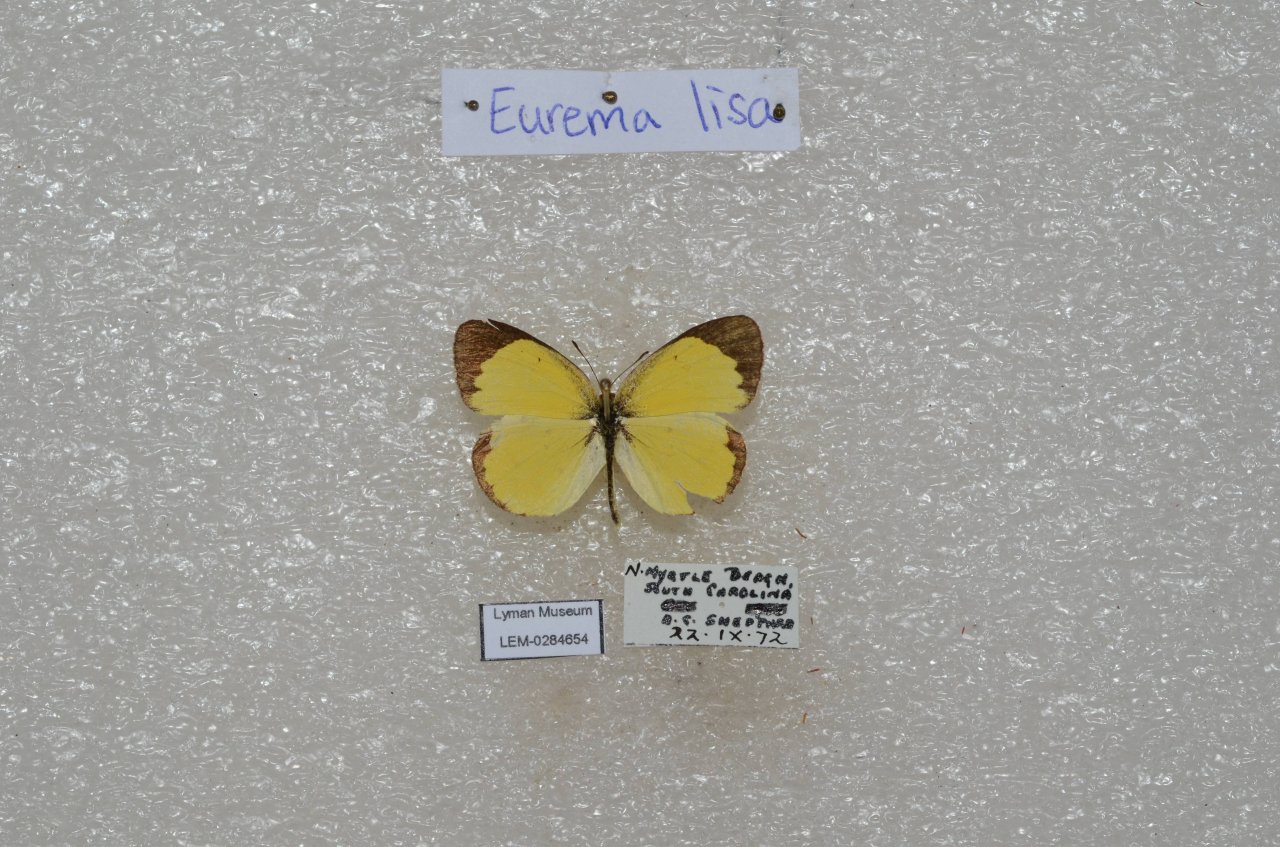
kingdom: Animalia
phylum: Arthropoda
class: Insecta
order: Lepidoptera
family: Pieridae
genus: Pyrisitia
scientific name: Pyrisitia lisa
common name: Little Yellow
